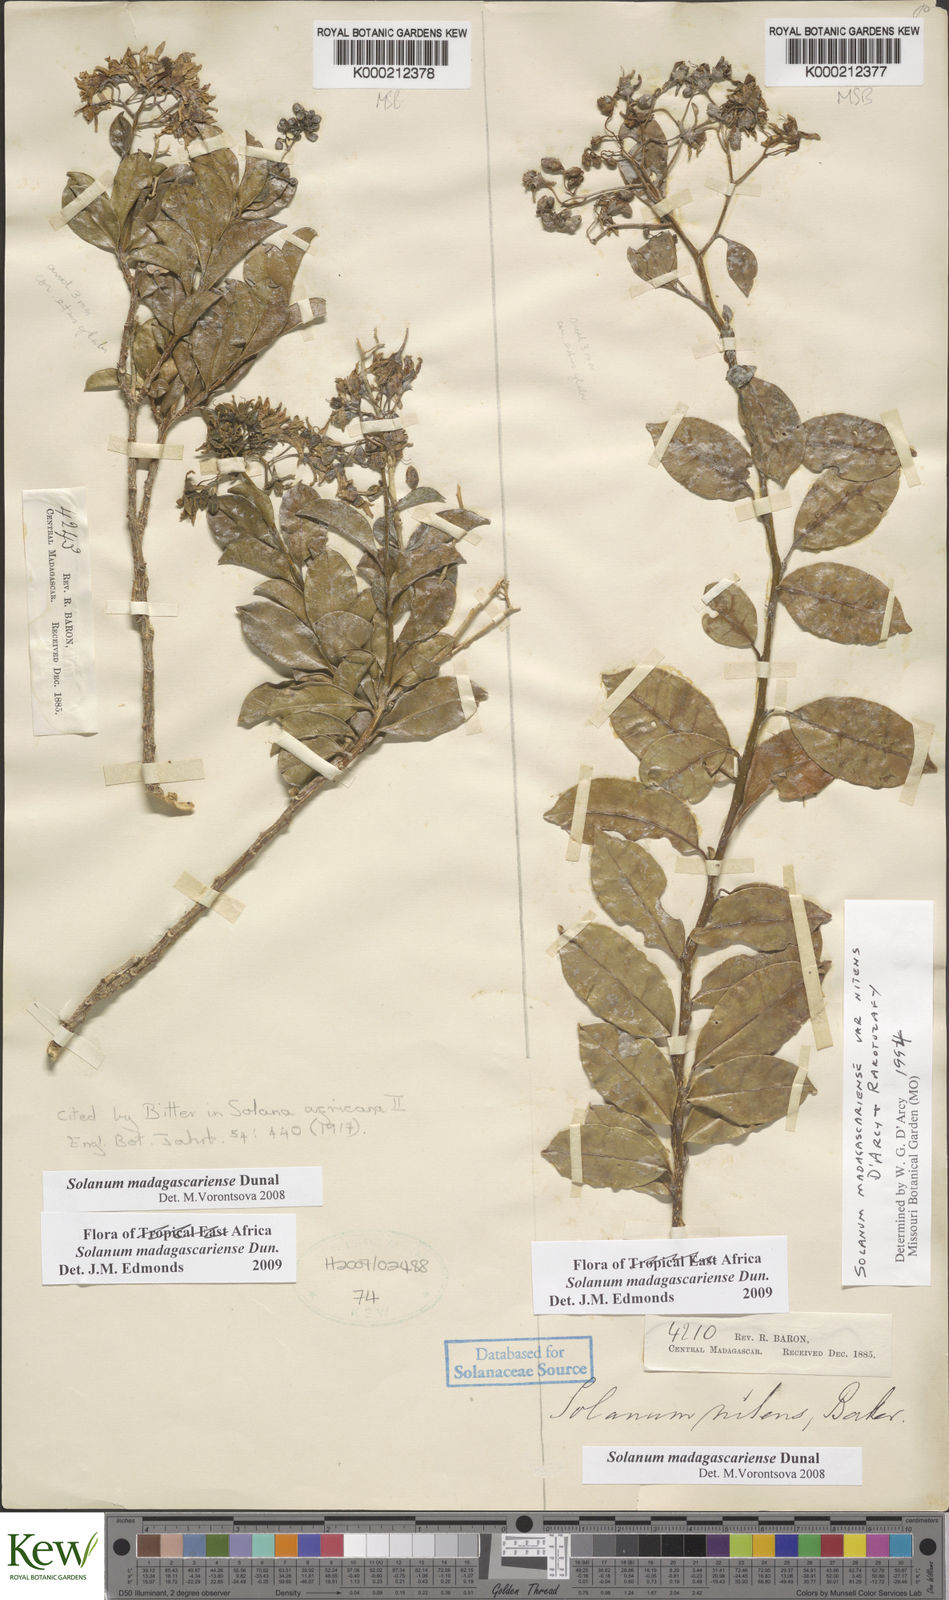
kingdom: Plantae
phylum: Tracheophyta
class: Magnoliopsida
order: Solanales
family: Solanaceae
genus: Solanum
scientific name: Solanum madagascariense
